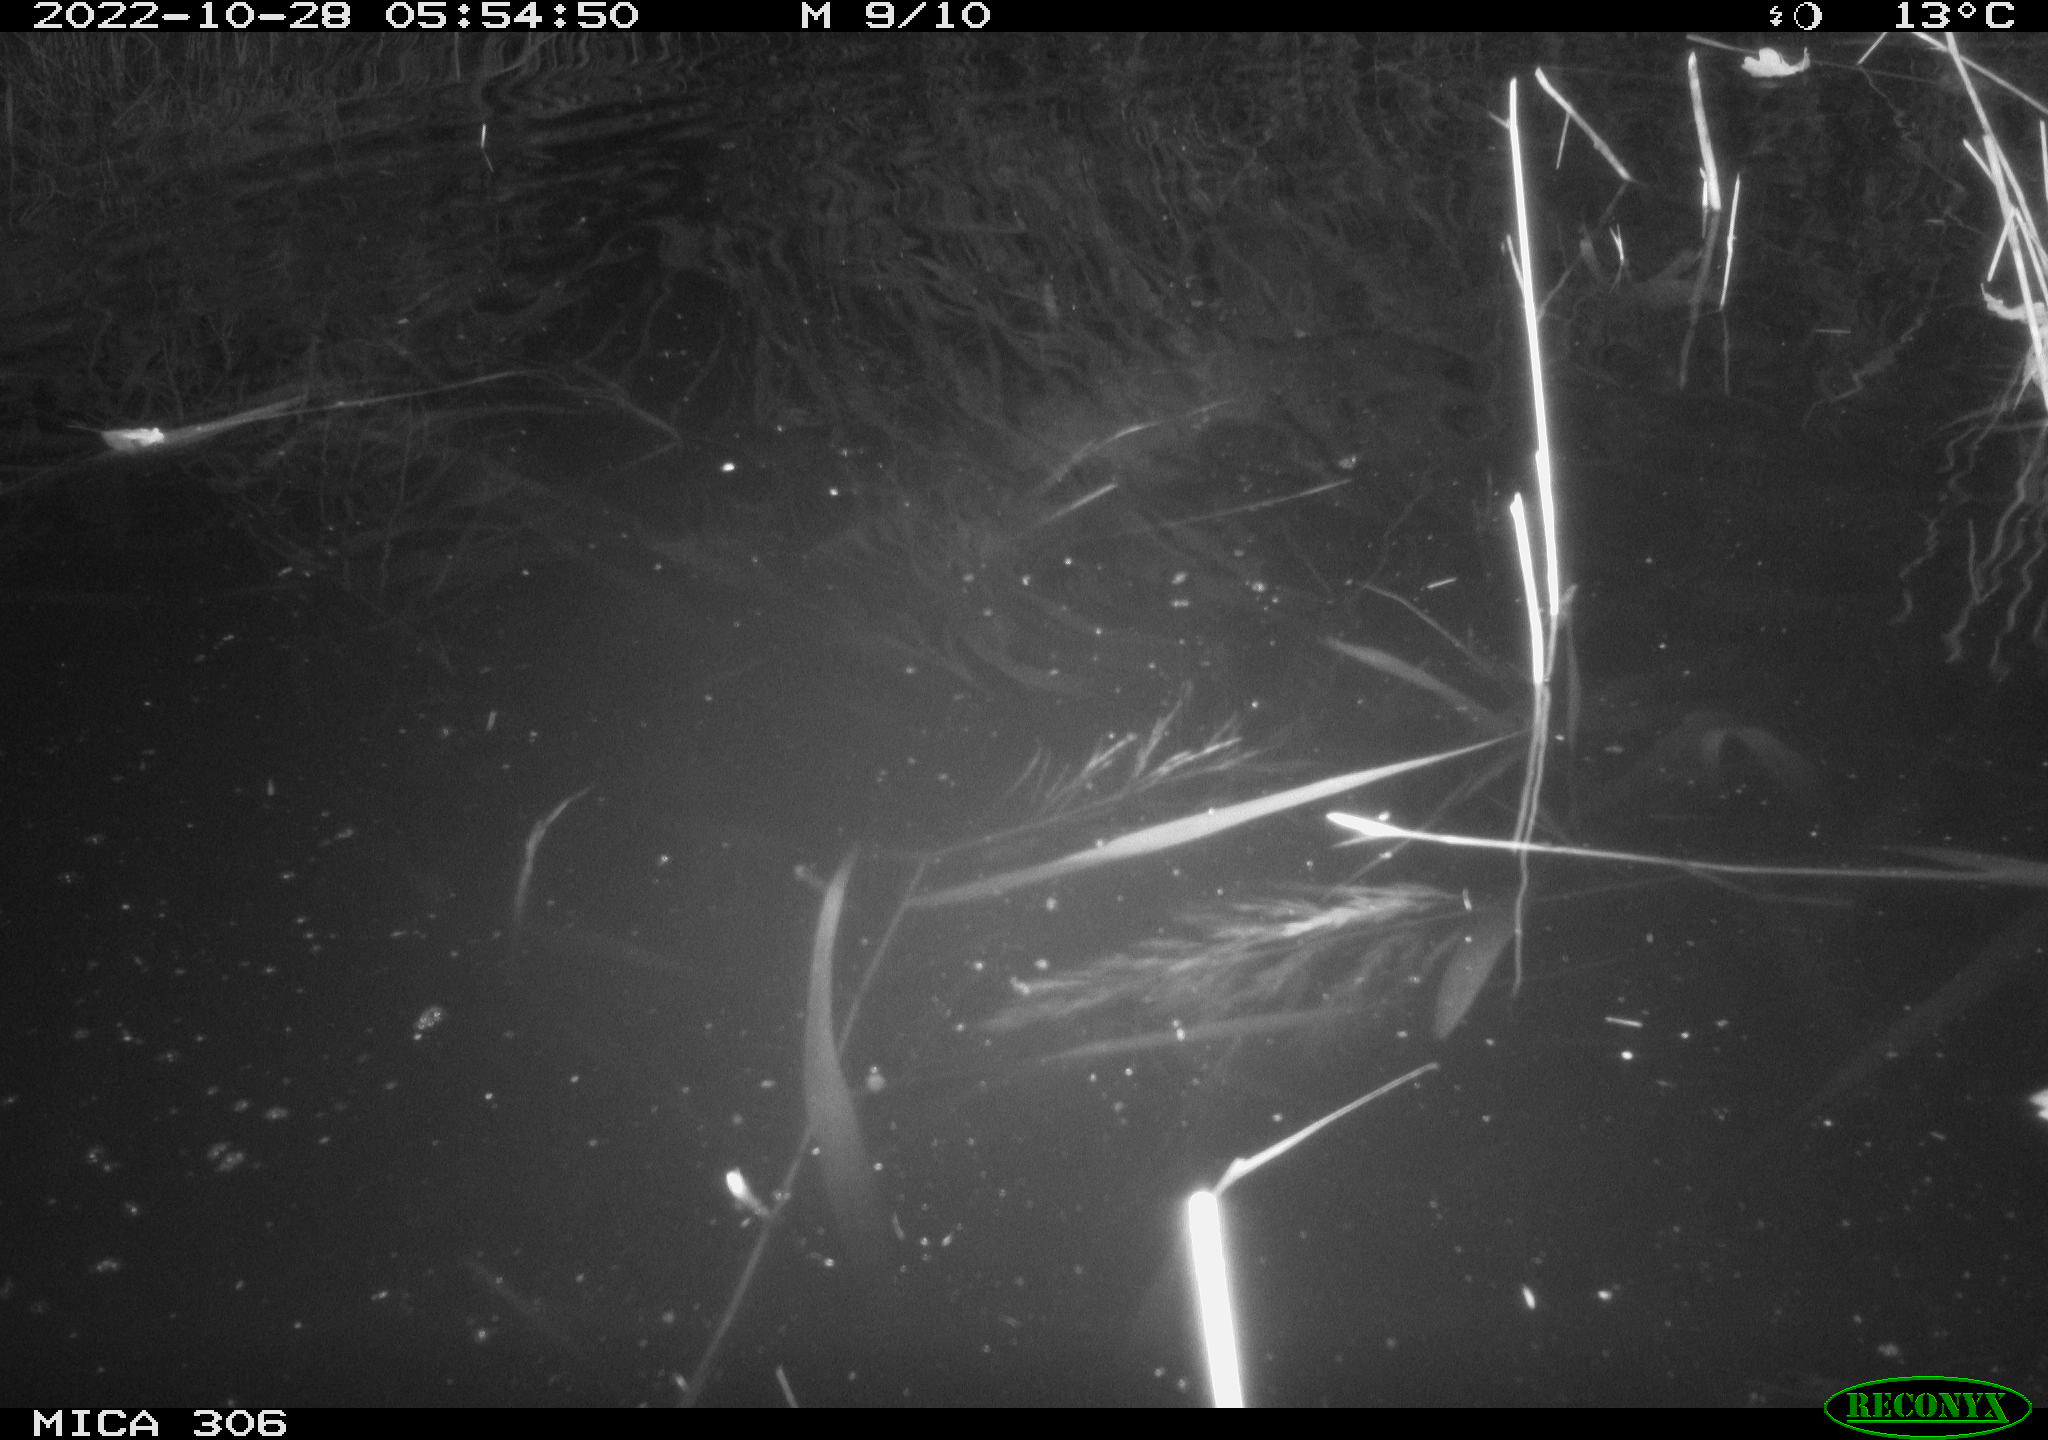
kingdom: Animalia
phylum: Chordata
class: Mammalia
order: Rodentia
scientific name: Rodentia
